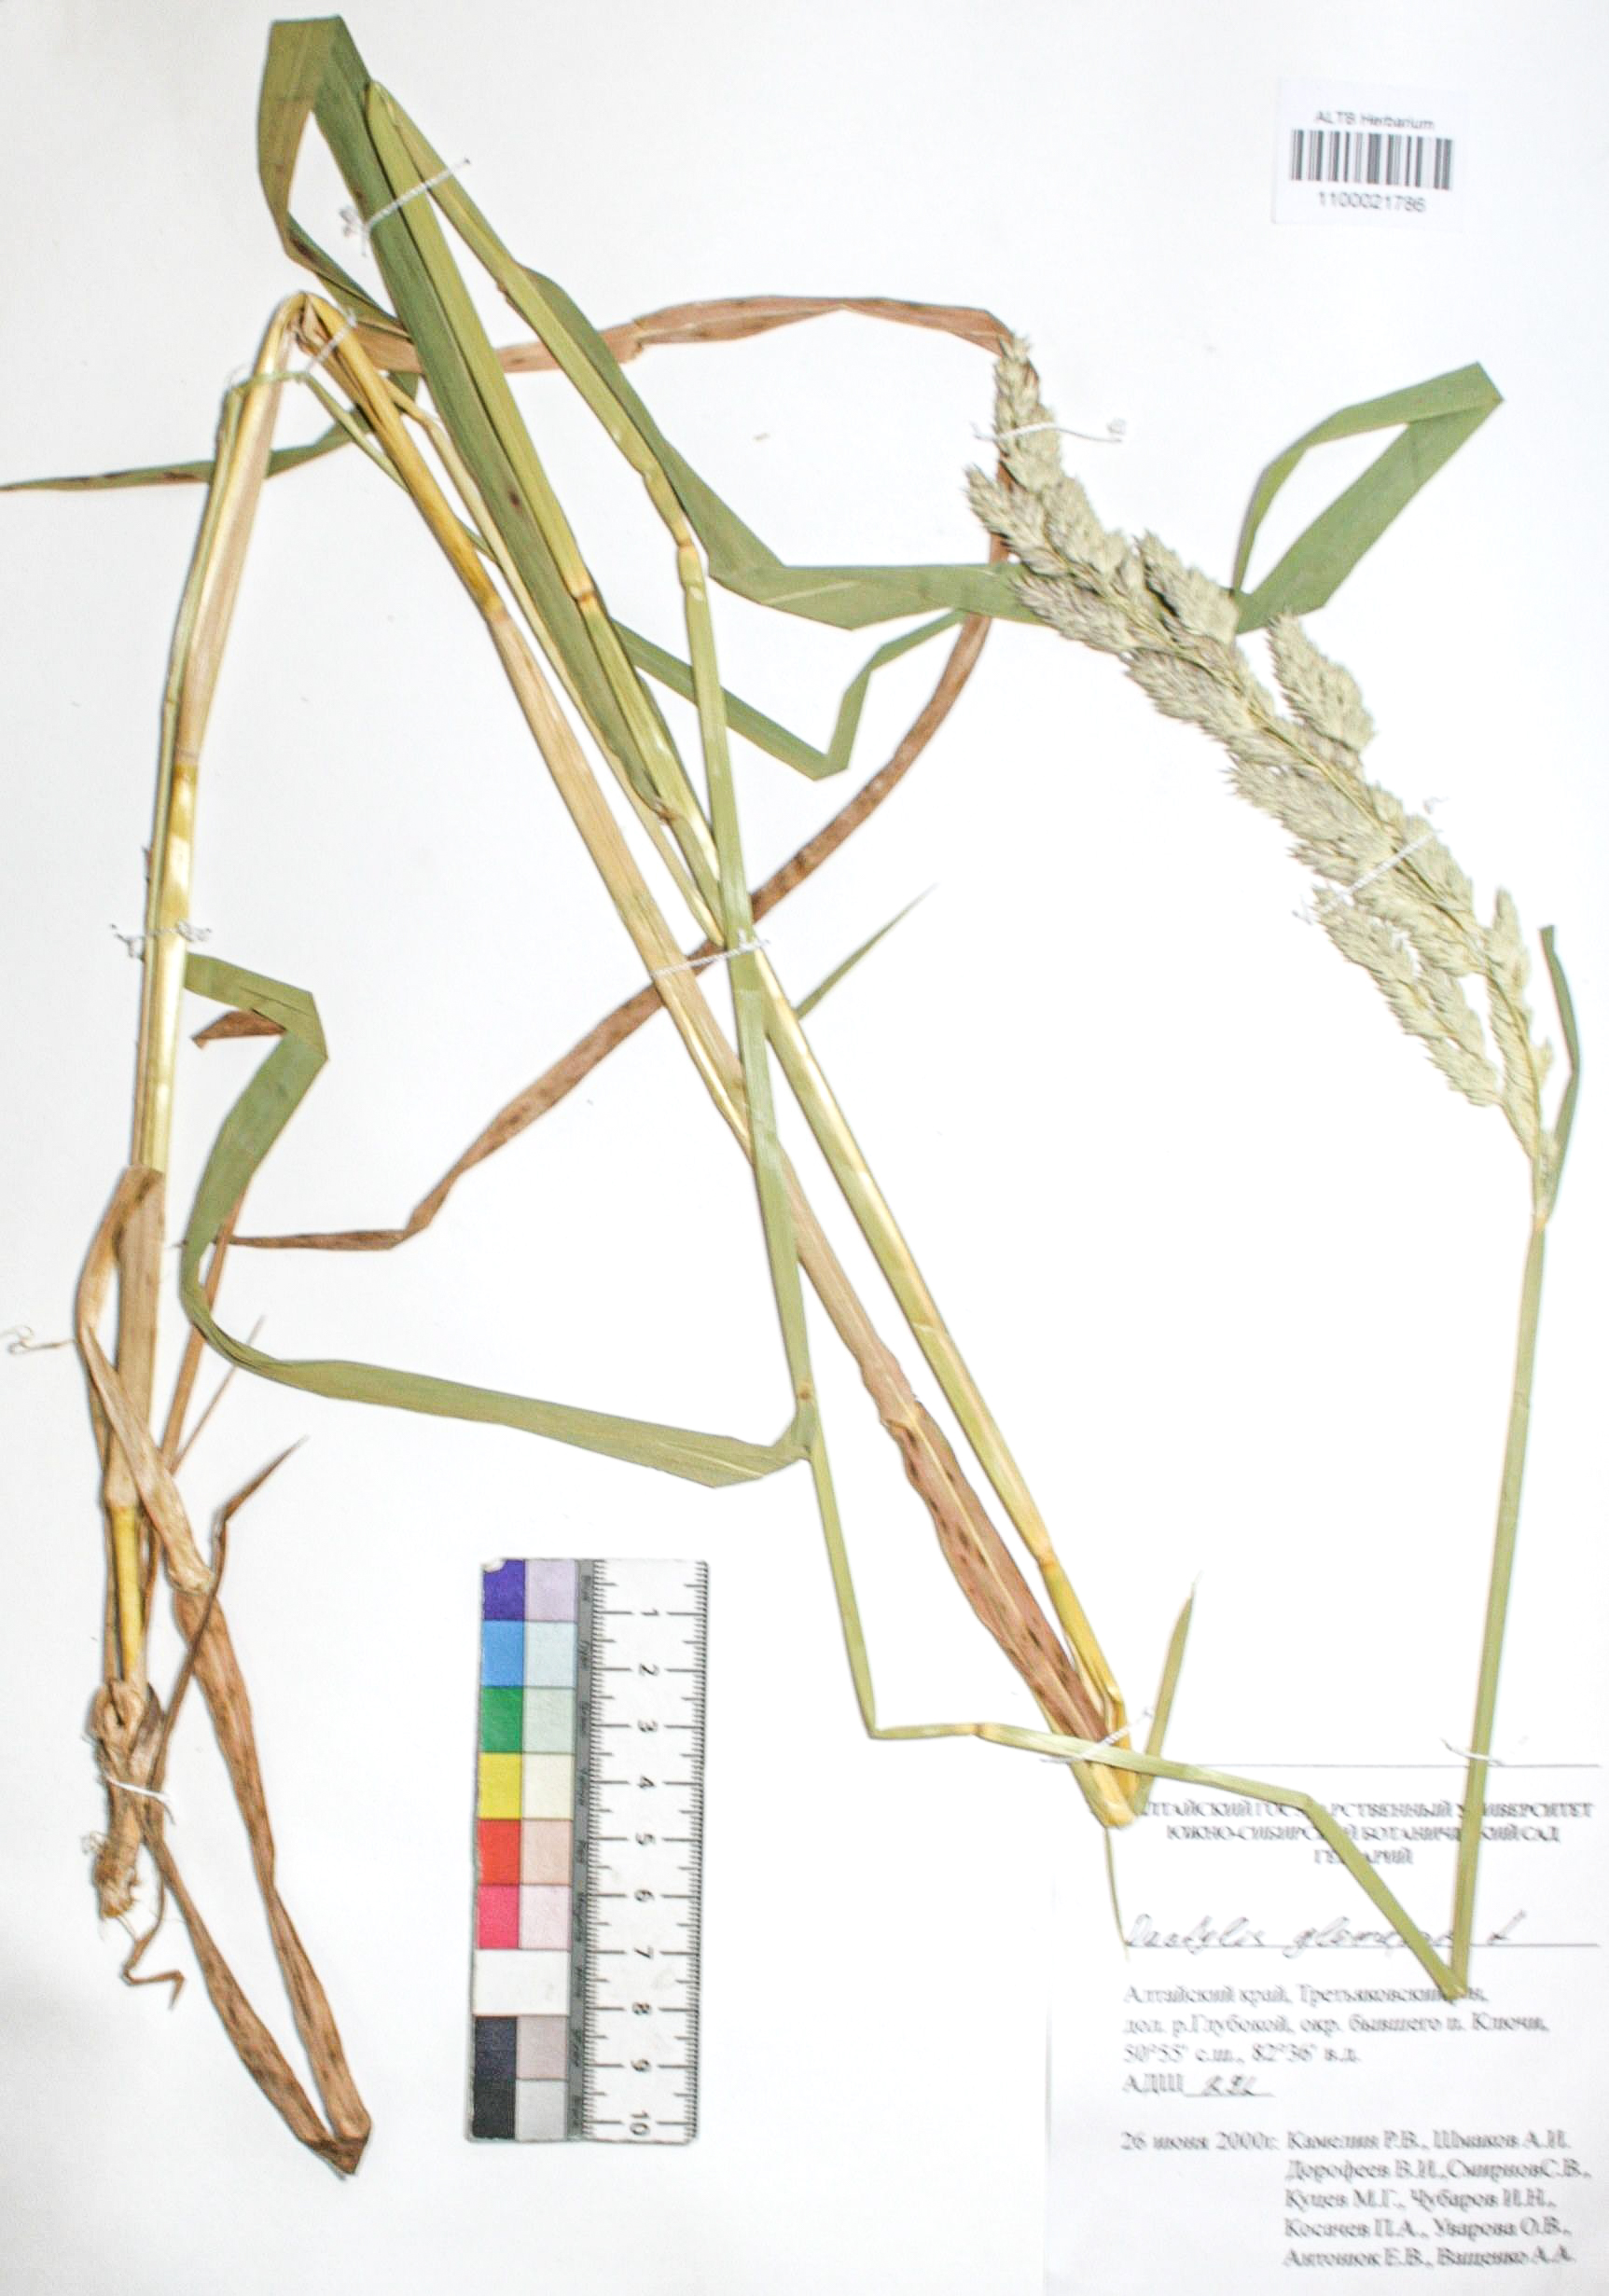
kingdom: Plantae
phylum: Tracheophyta
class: Liliopsida
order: Poales
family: Poaceae
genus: Dactylis
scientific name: Dactylis glomerata
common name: Orchardgrass
